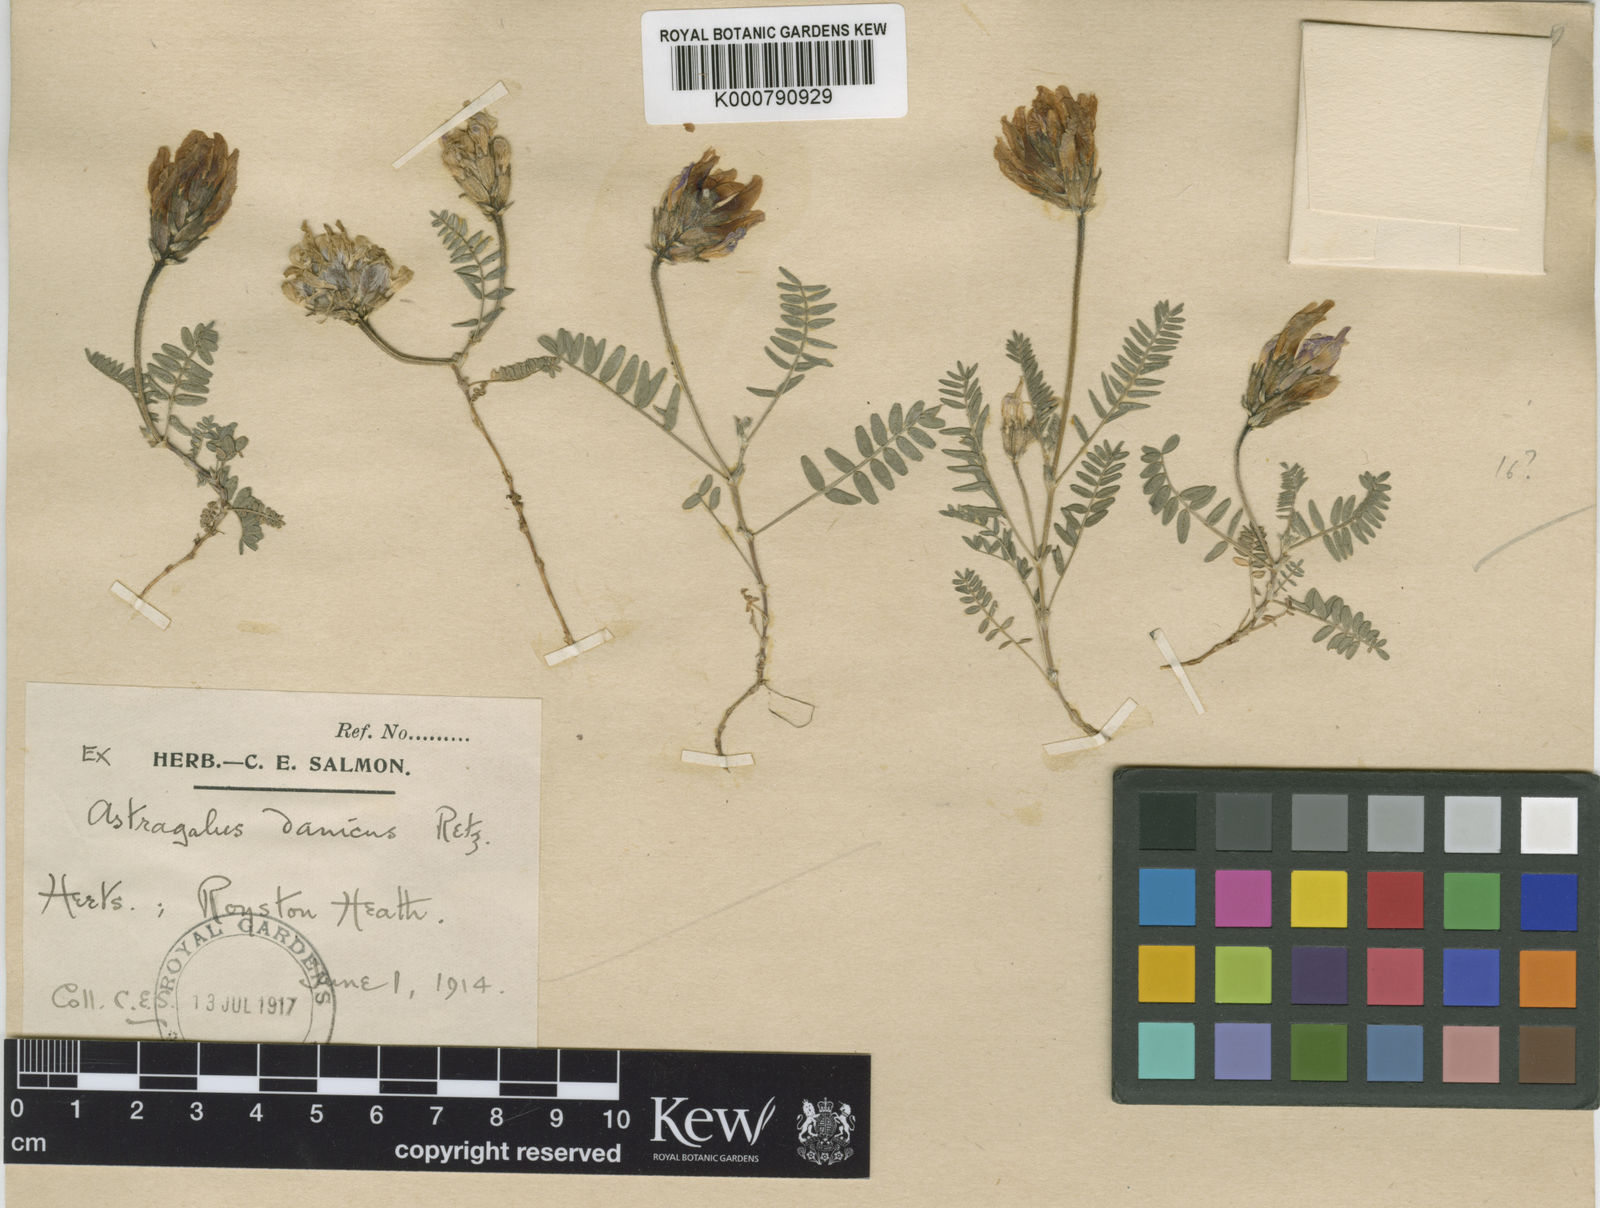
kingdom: Plantae
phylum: Tracheophyta
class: Magnoliopsida
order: Fabales
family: Fabaceae
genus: Astragalus
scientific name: Astragalus danicus
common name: Purple milk-vetch
